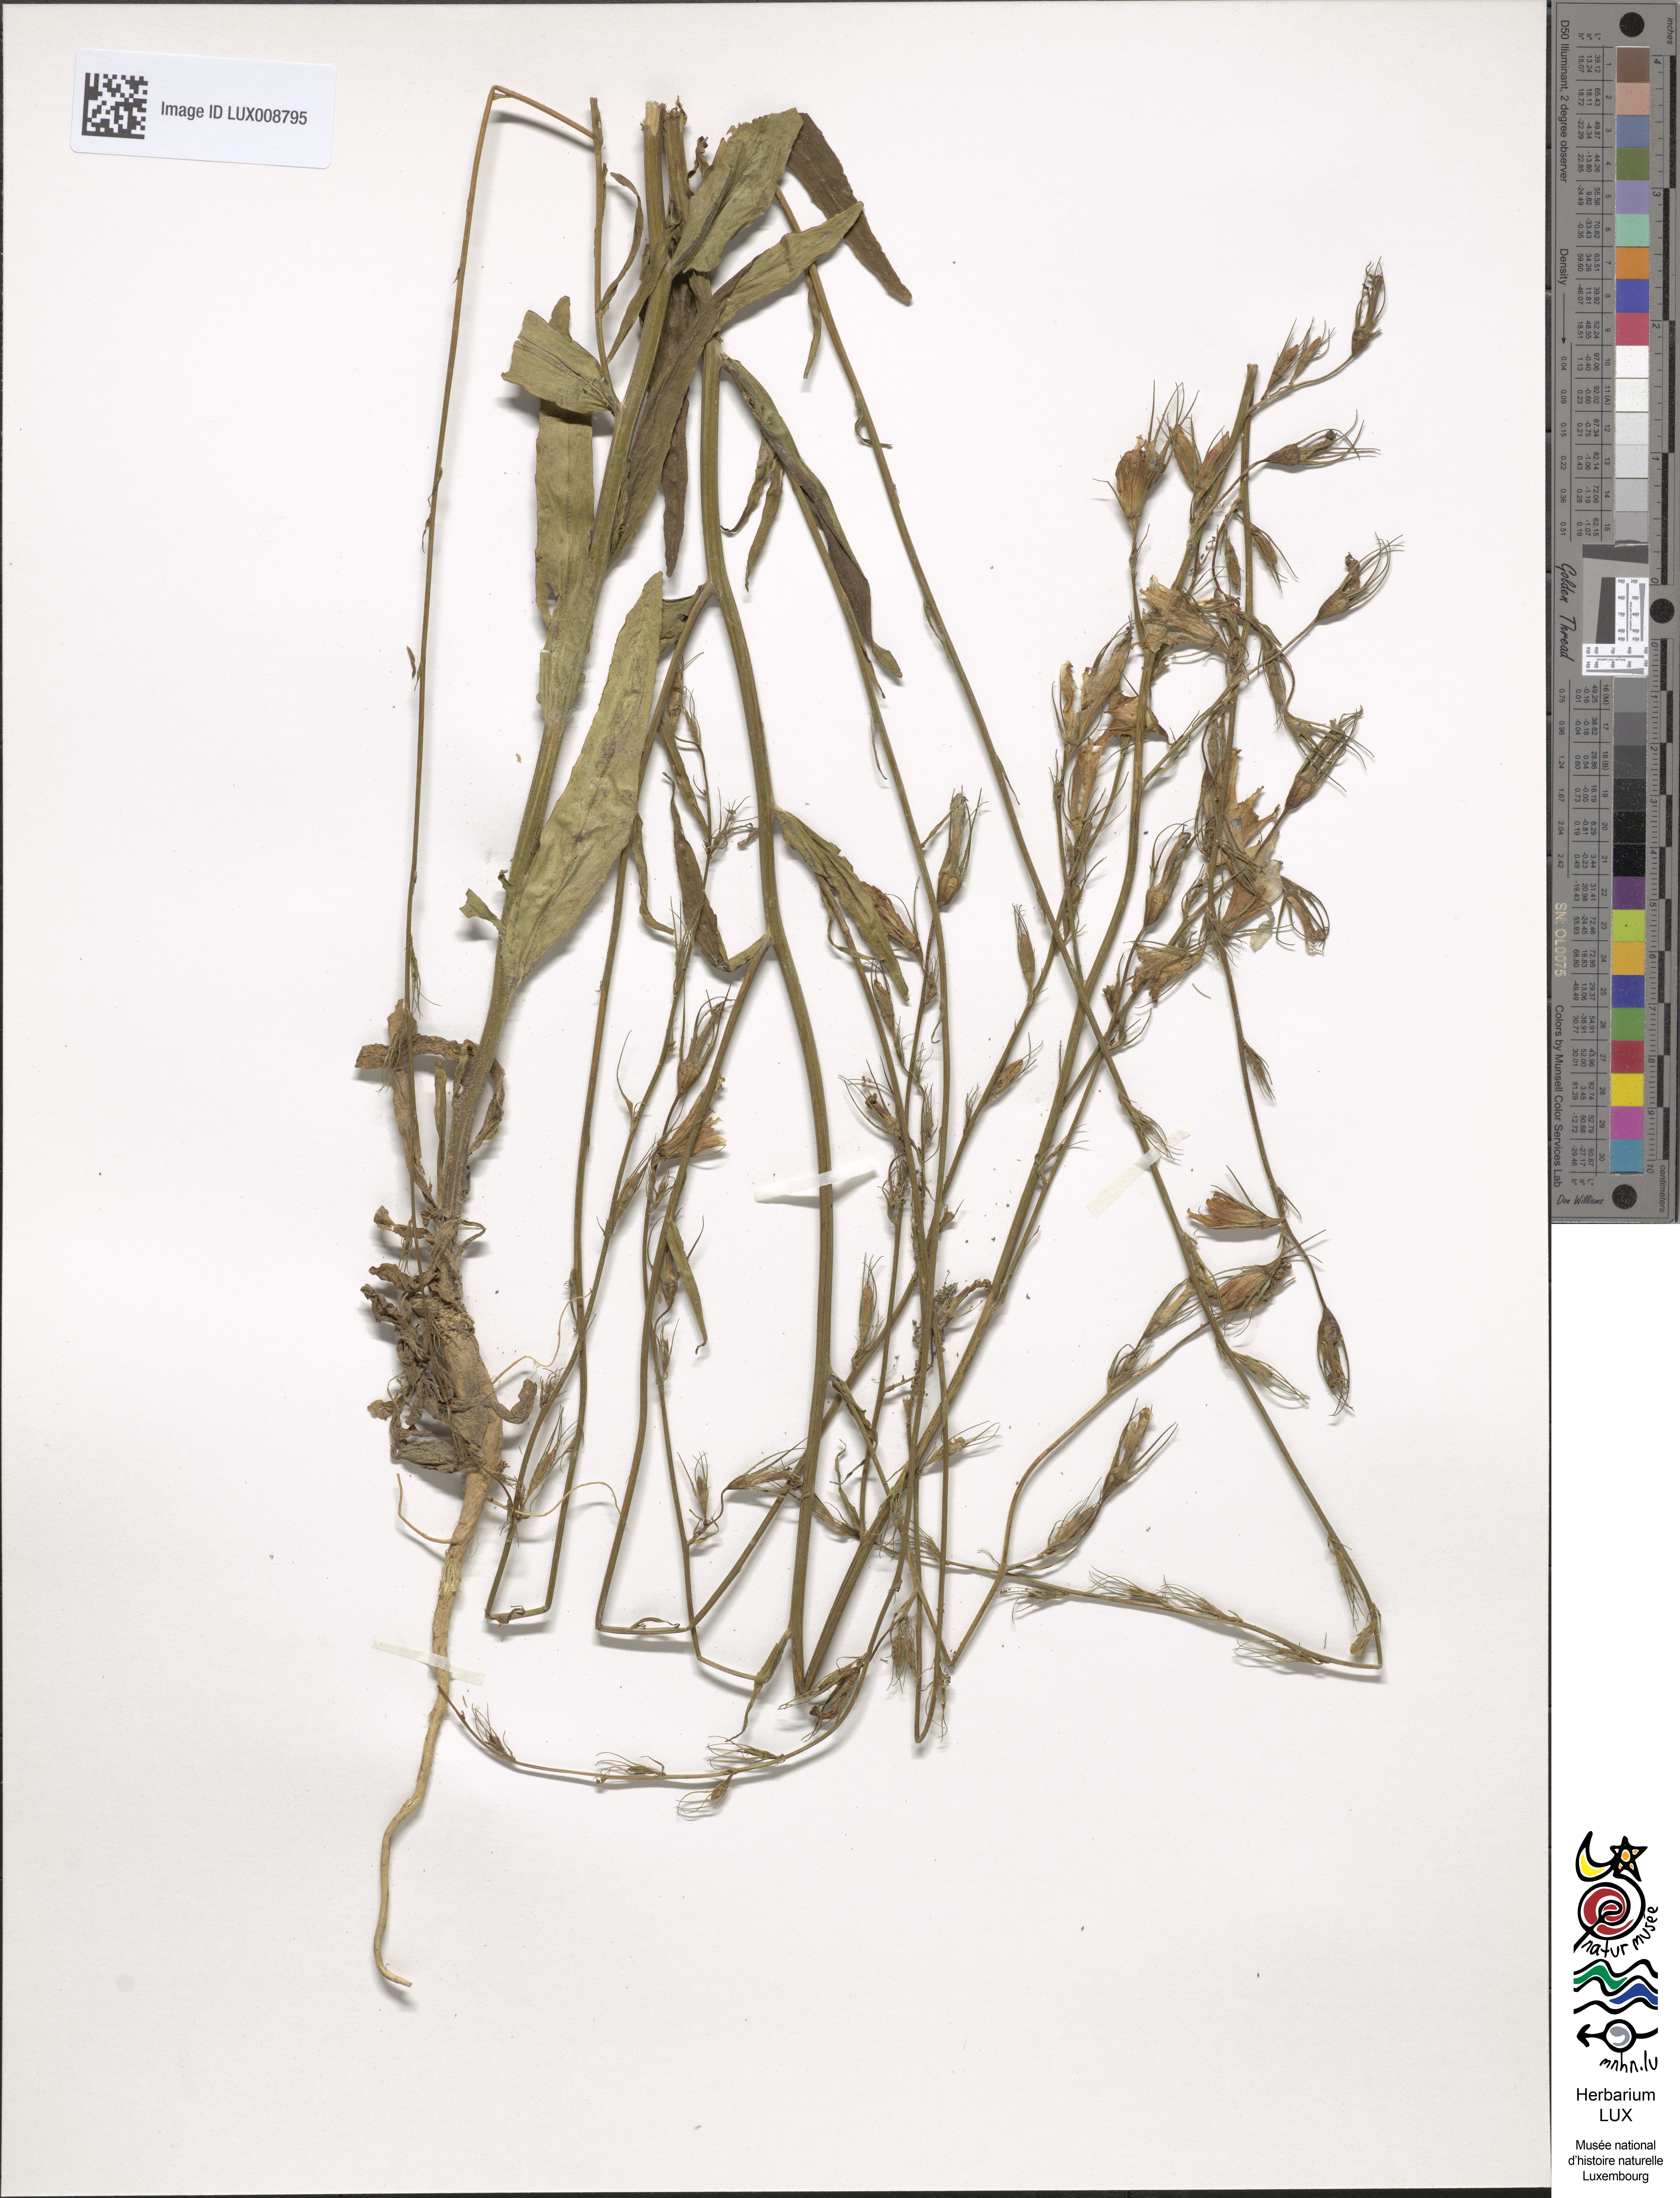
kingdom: Plantae
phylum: Tracheophyta
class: Magnoliopsida
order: Asterales
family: Campanulaceae
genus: Campanula
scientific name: Campanula rapunculus
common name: Rampion bellflower
